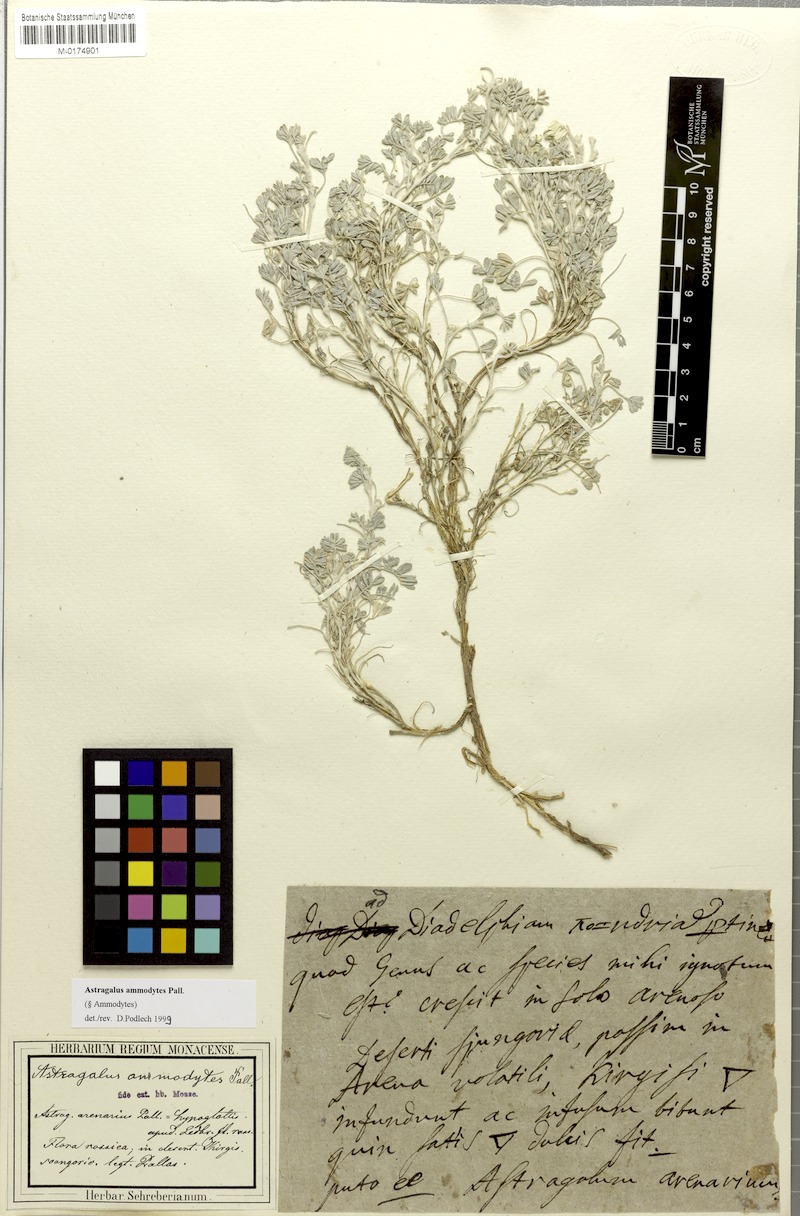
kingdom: Plantae
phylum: Tracheophyta
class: Magnoliopsida
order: Fabales
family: Fabaceae
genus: Astragalus
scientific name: Astragalus ammodytes
